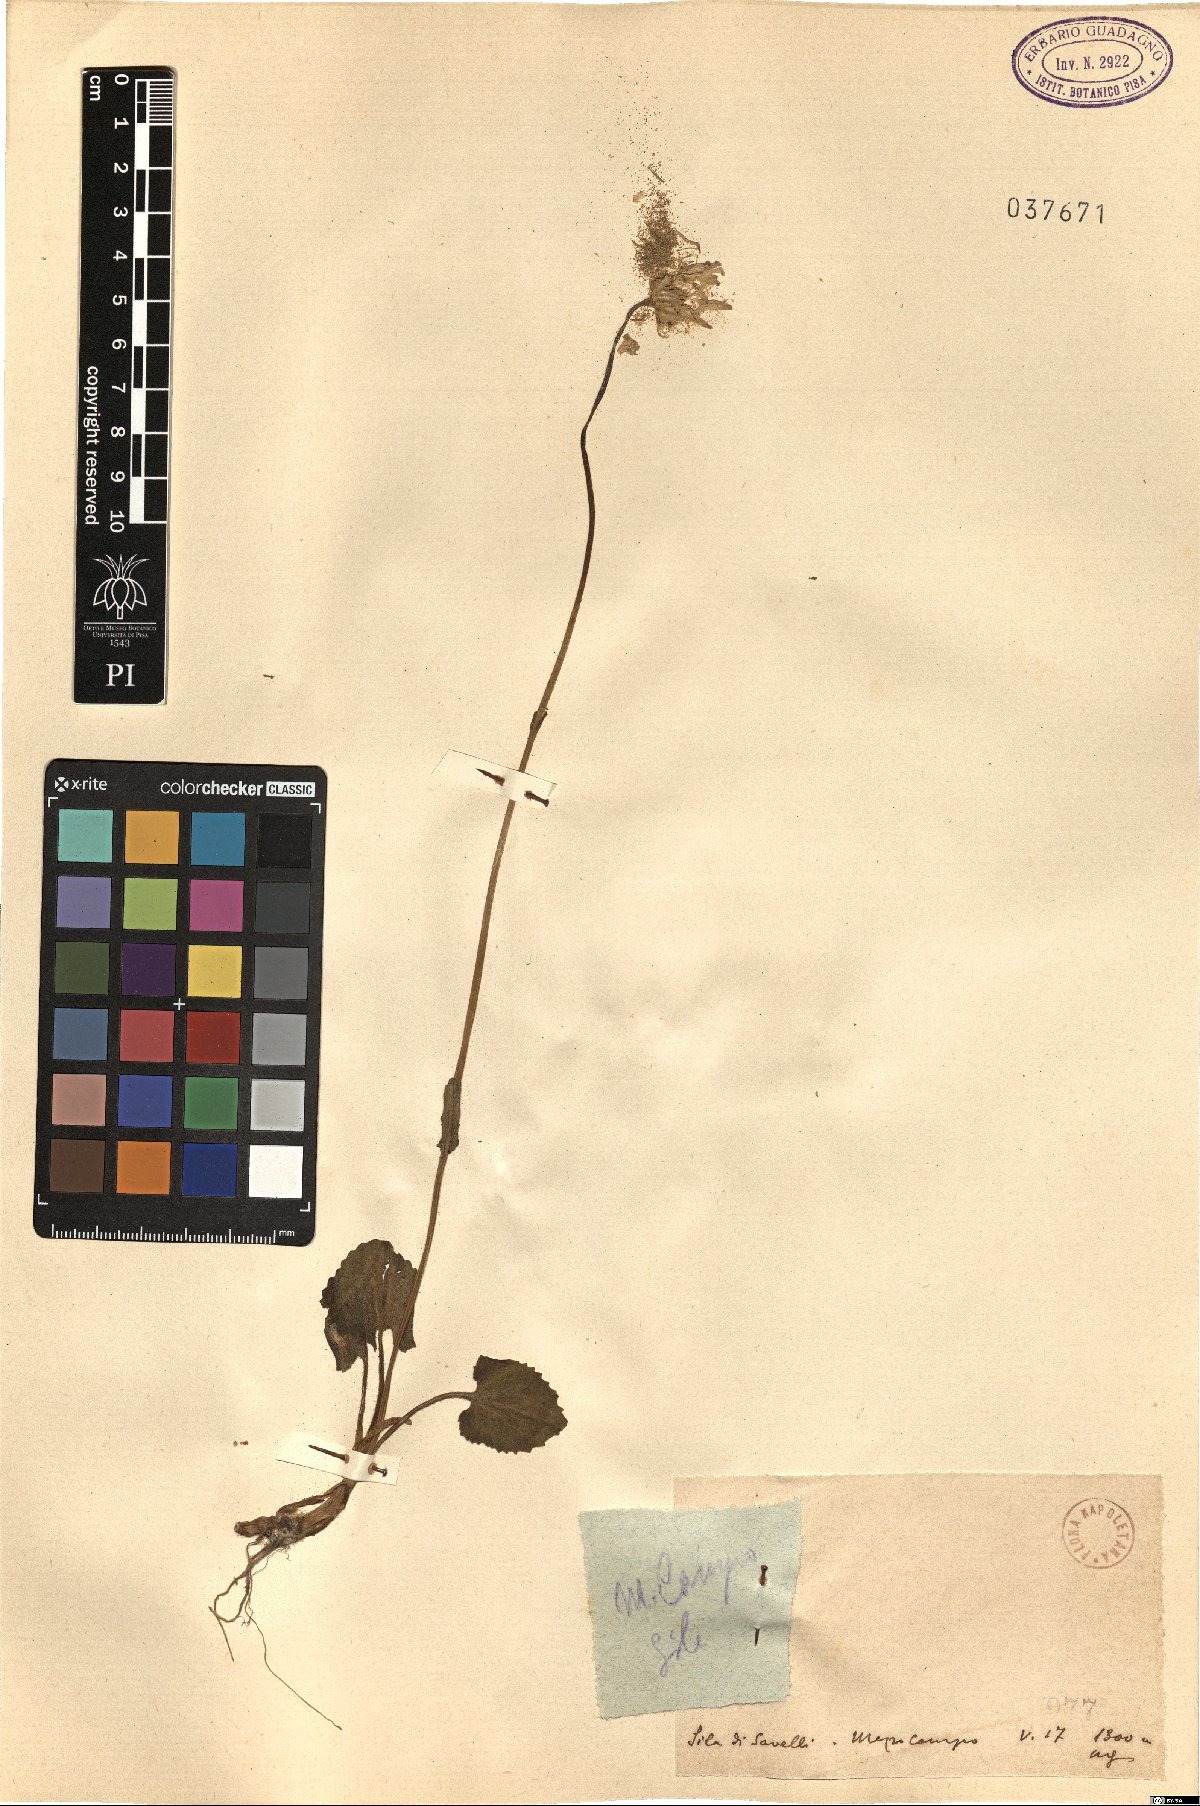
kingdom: Plantae
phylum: Tracheophyta
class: Magnoliopsida
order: Asterales
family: Asteraceae
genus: Doronicum
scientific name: Doronicum
